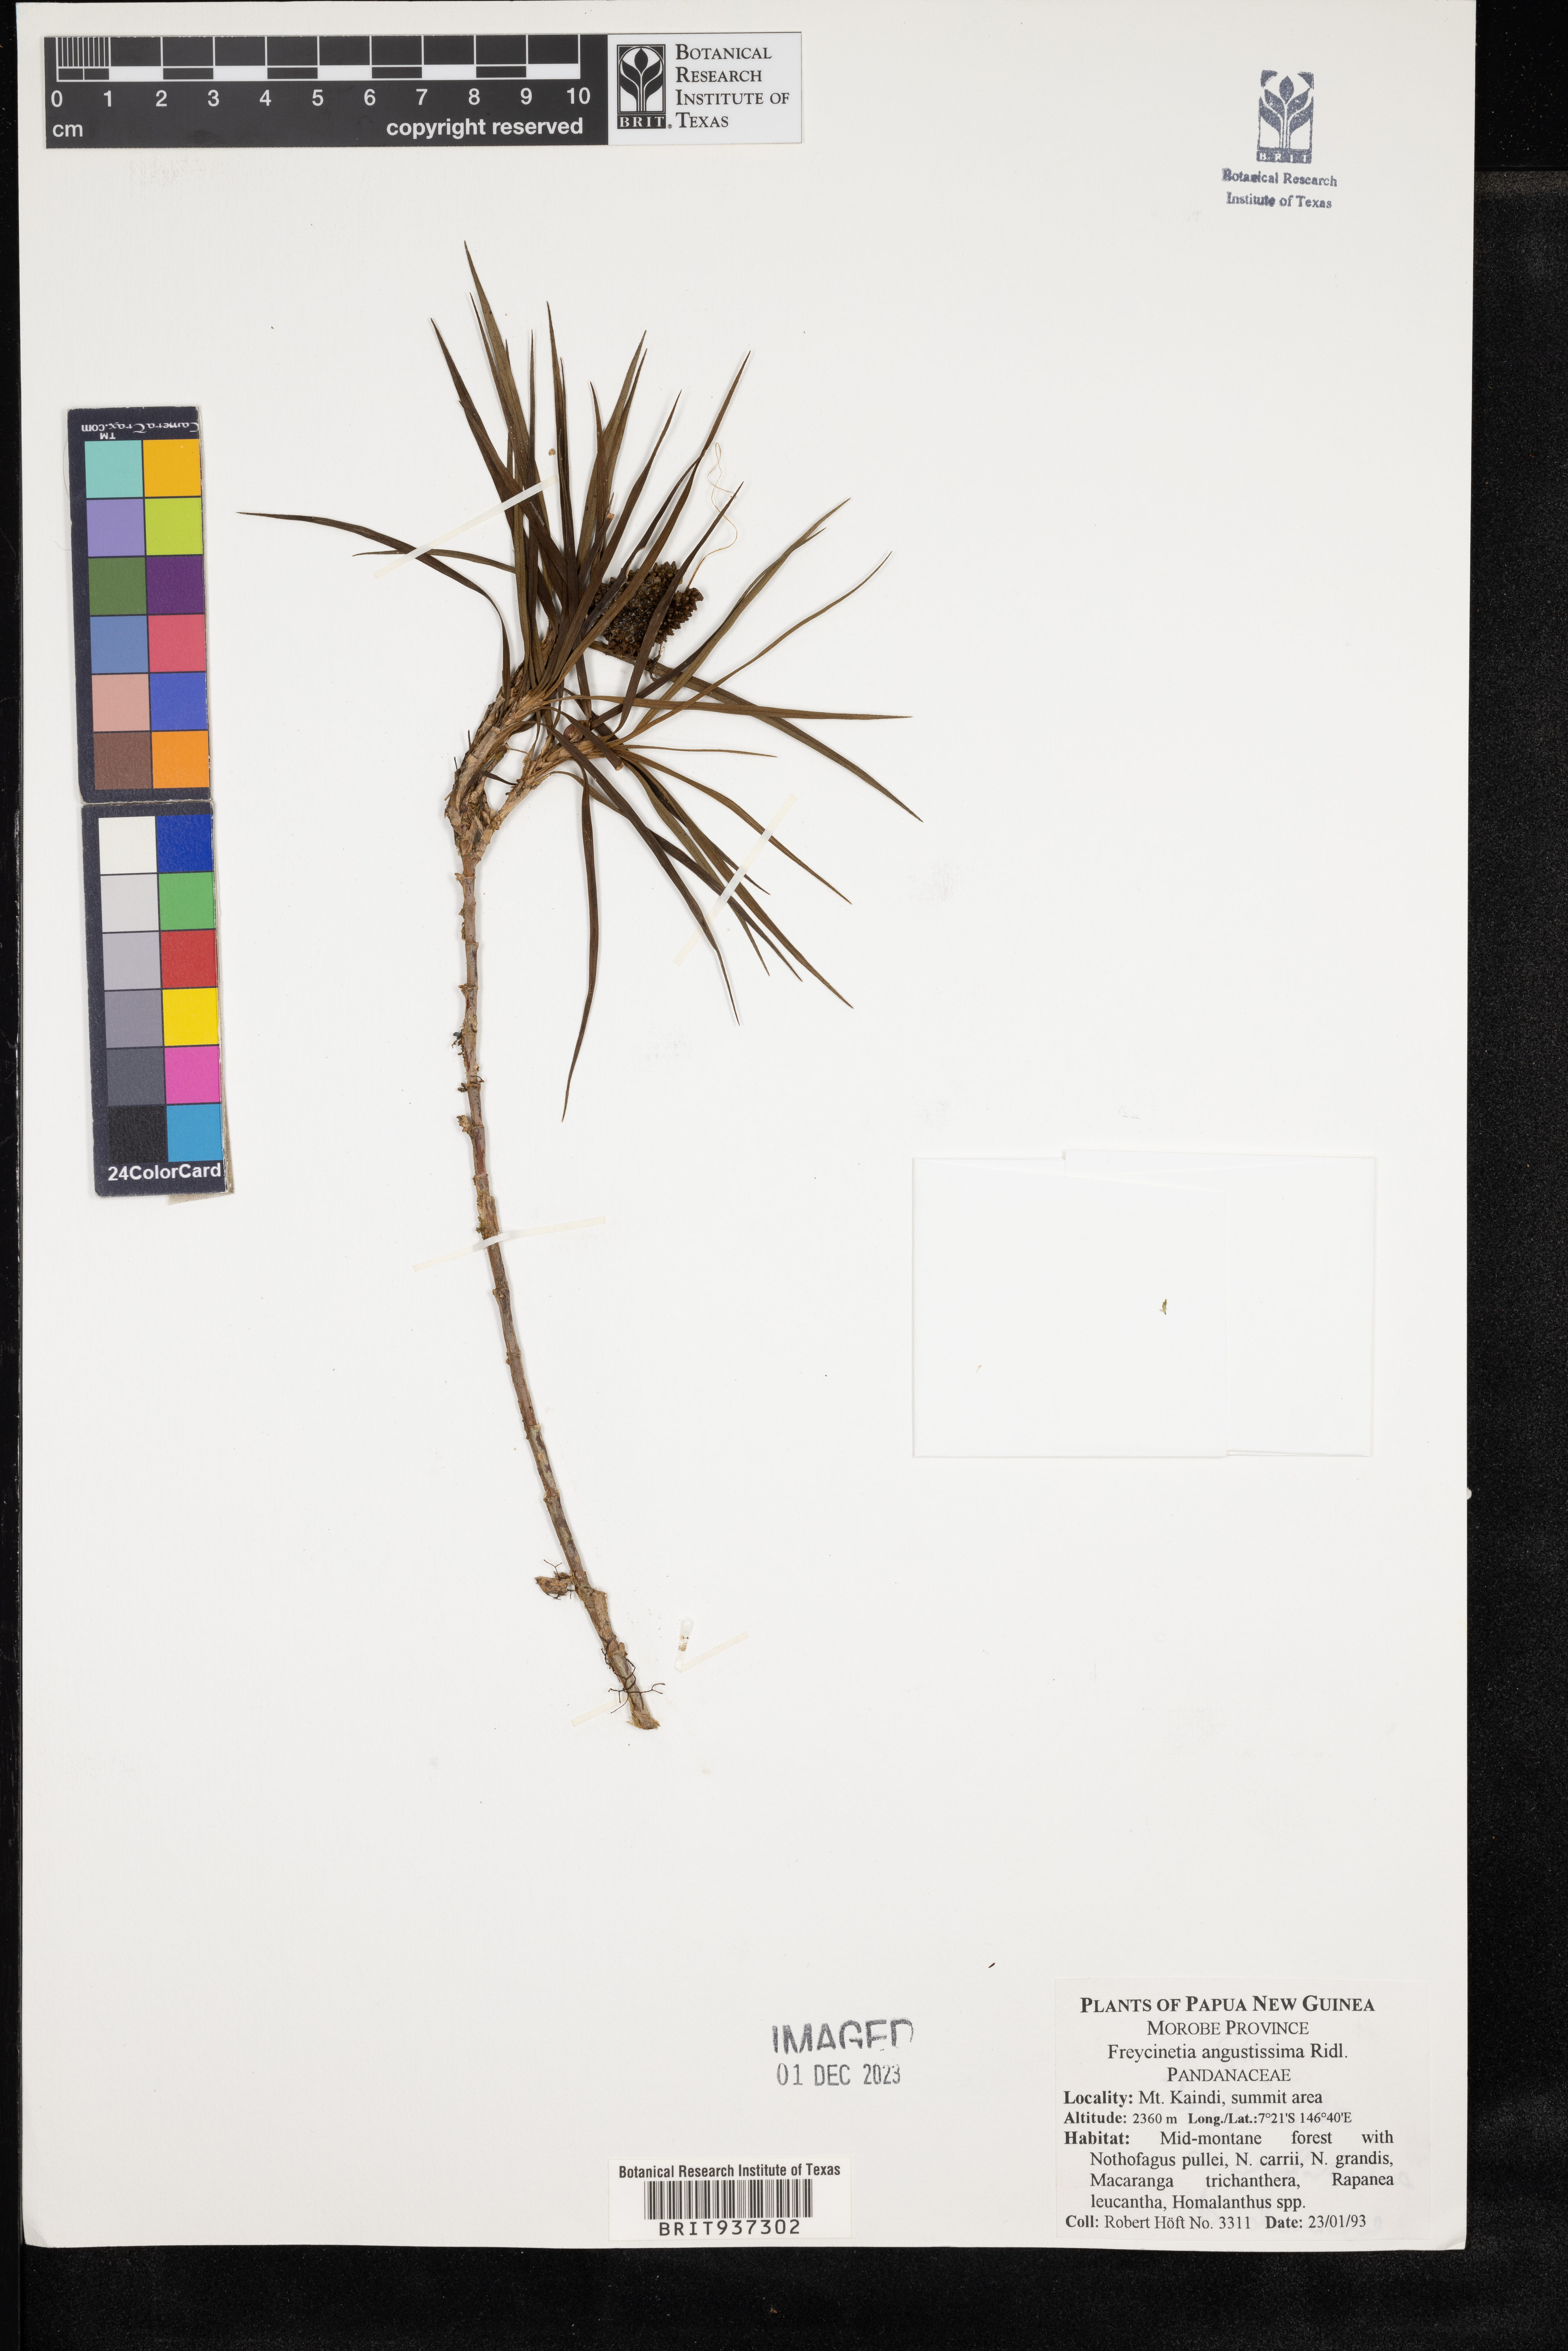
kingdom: Plantae
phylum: Tracheophyta
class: Liliopsida
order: Pandanales
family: Pandanaceae
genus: Freycinetia
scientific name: Freycinetia
